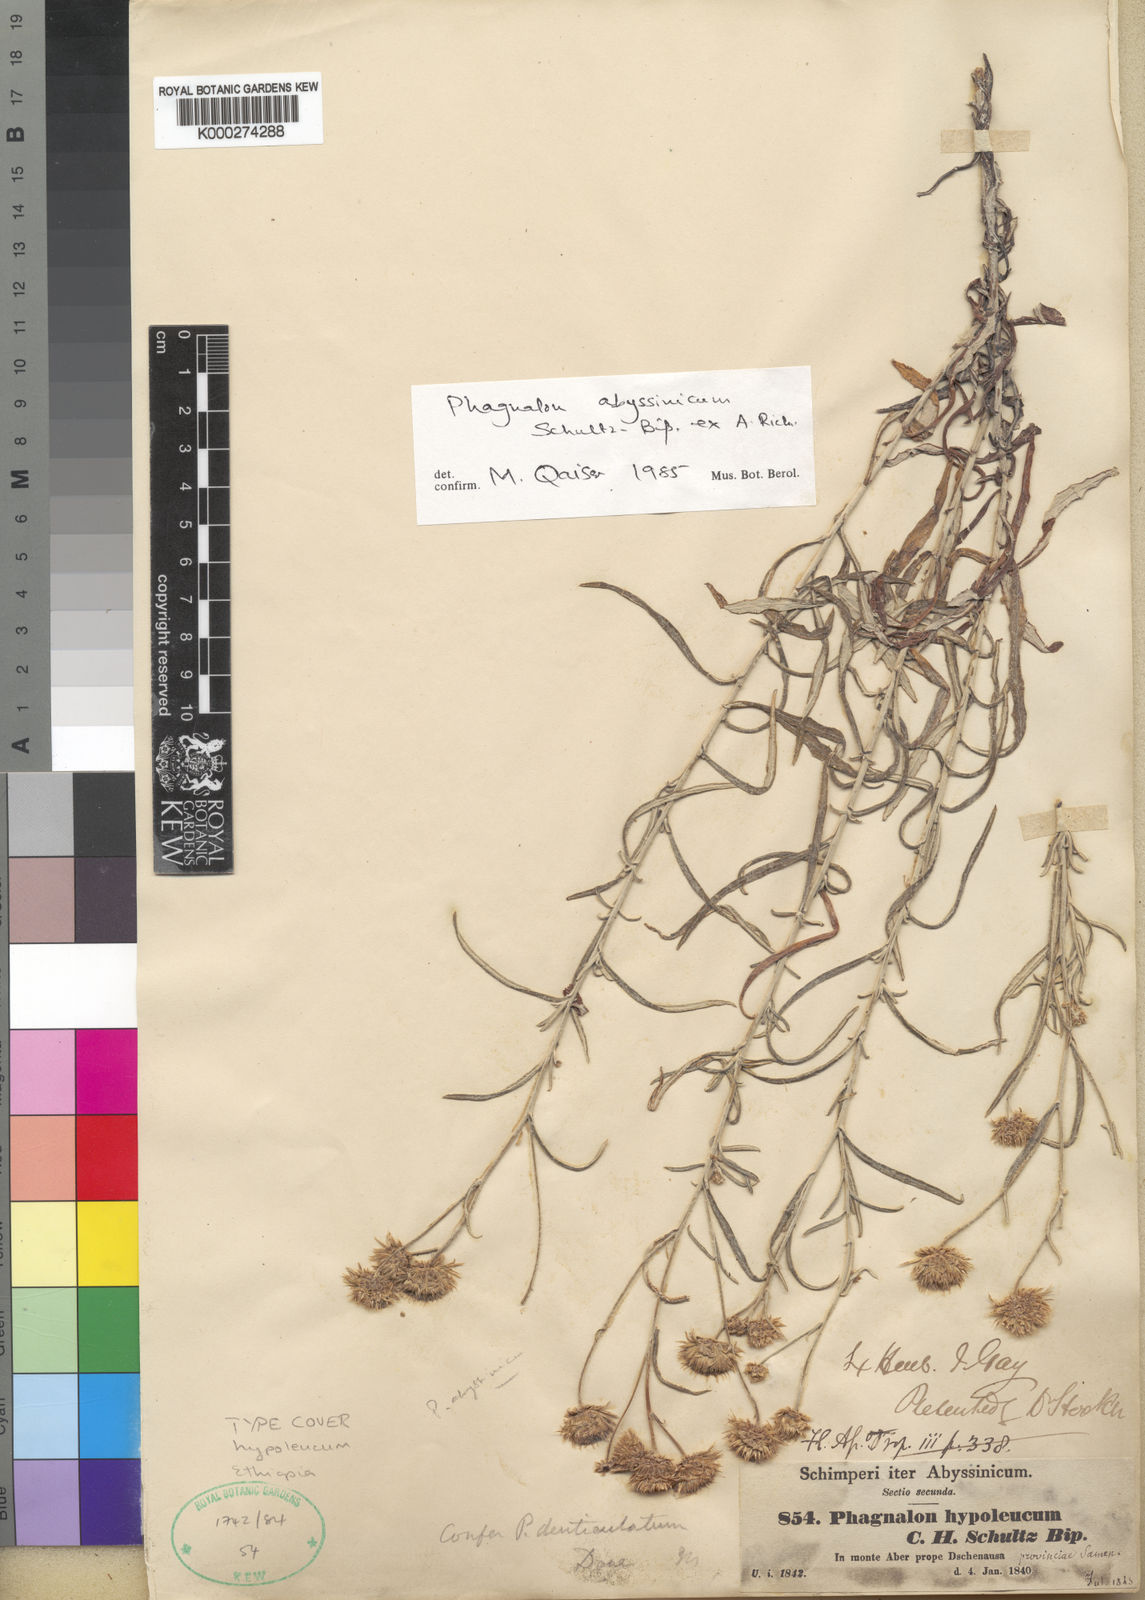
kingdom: Plantae
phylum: Tracheophyta
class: Magnoliopsida
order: Asterales
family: Asteraceae
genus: Phagnalon
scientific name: Phagnalon abyssinicum
